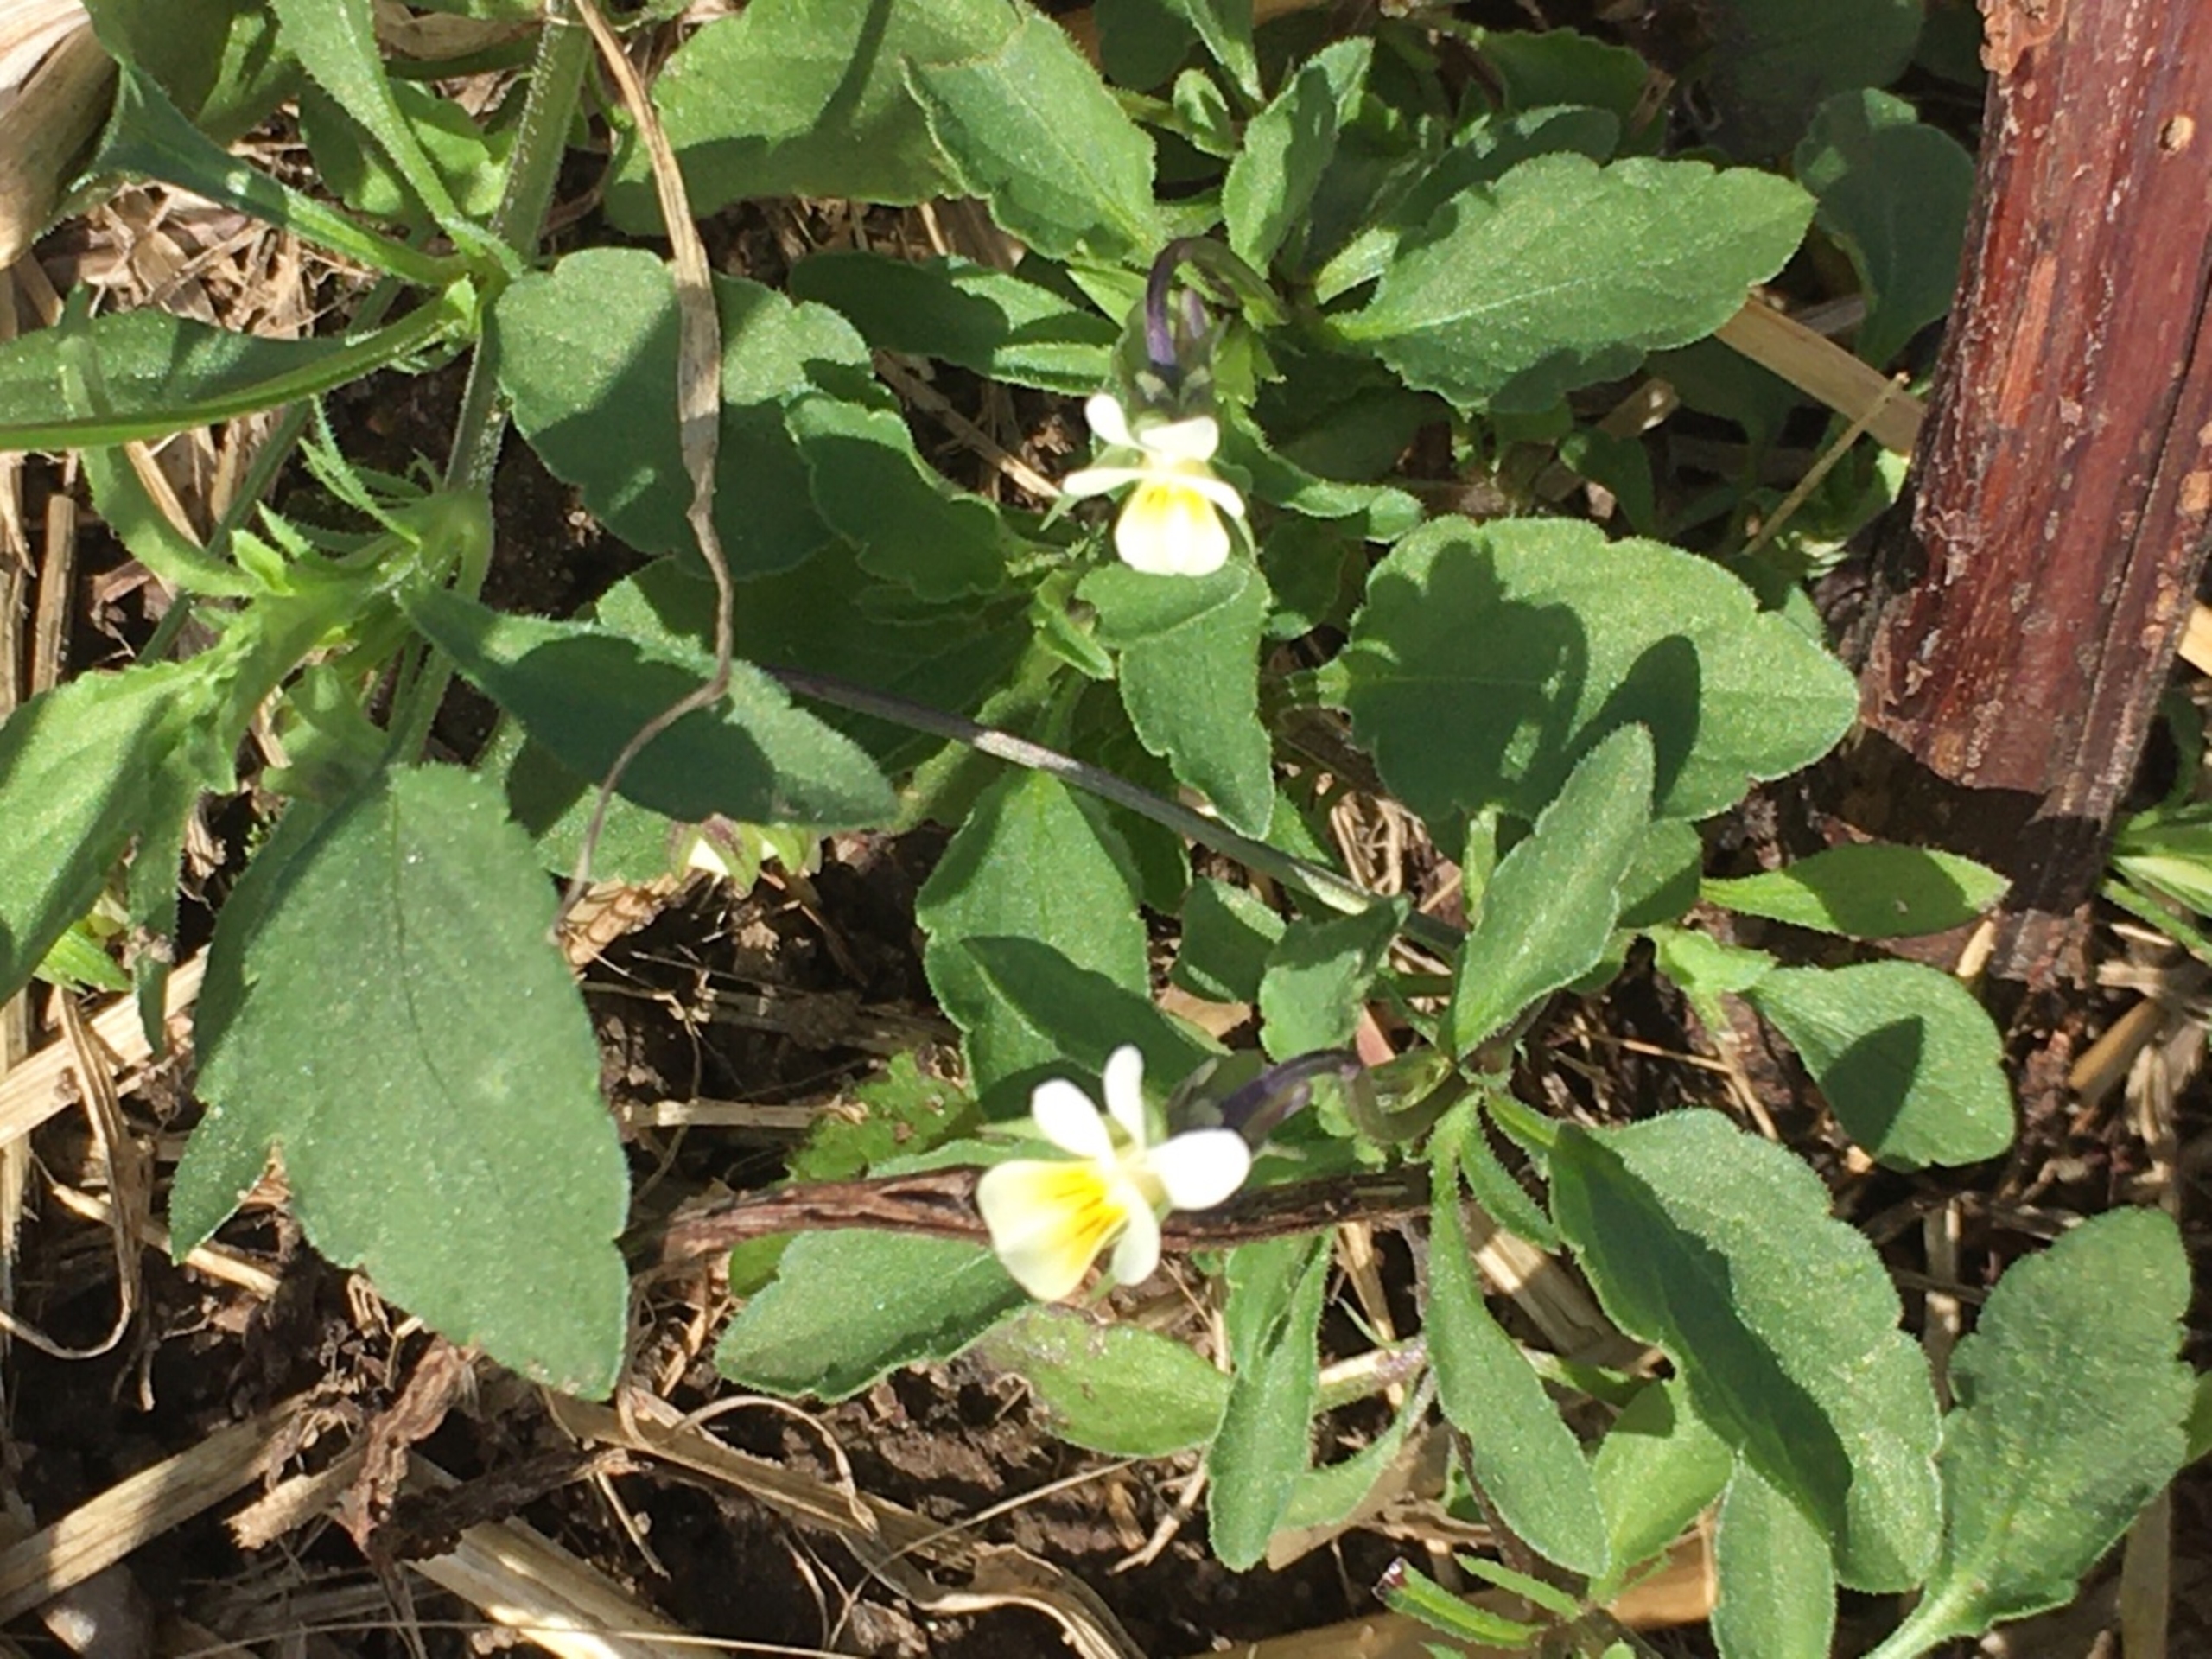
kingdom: Plantae
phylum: Tracheophyta
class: Magnoliopsida
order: Malpighiales
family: Violaceae
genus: Viola
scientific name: Viola arvensis
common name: Ager-stedmoderblomst
